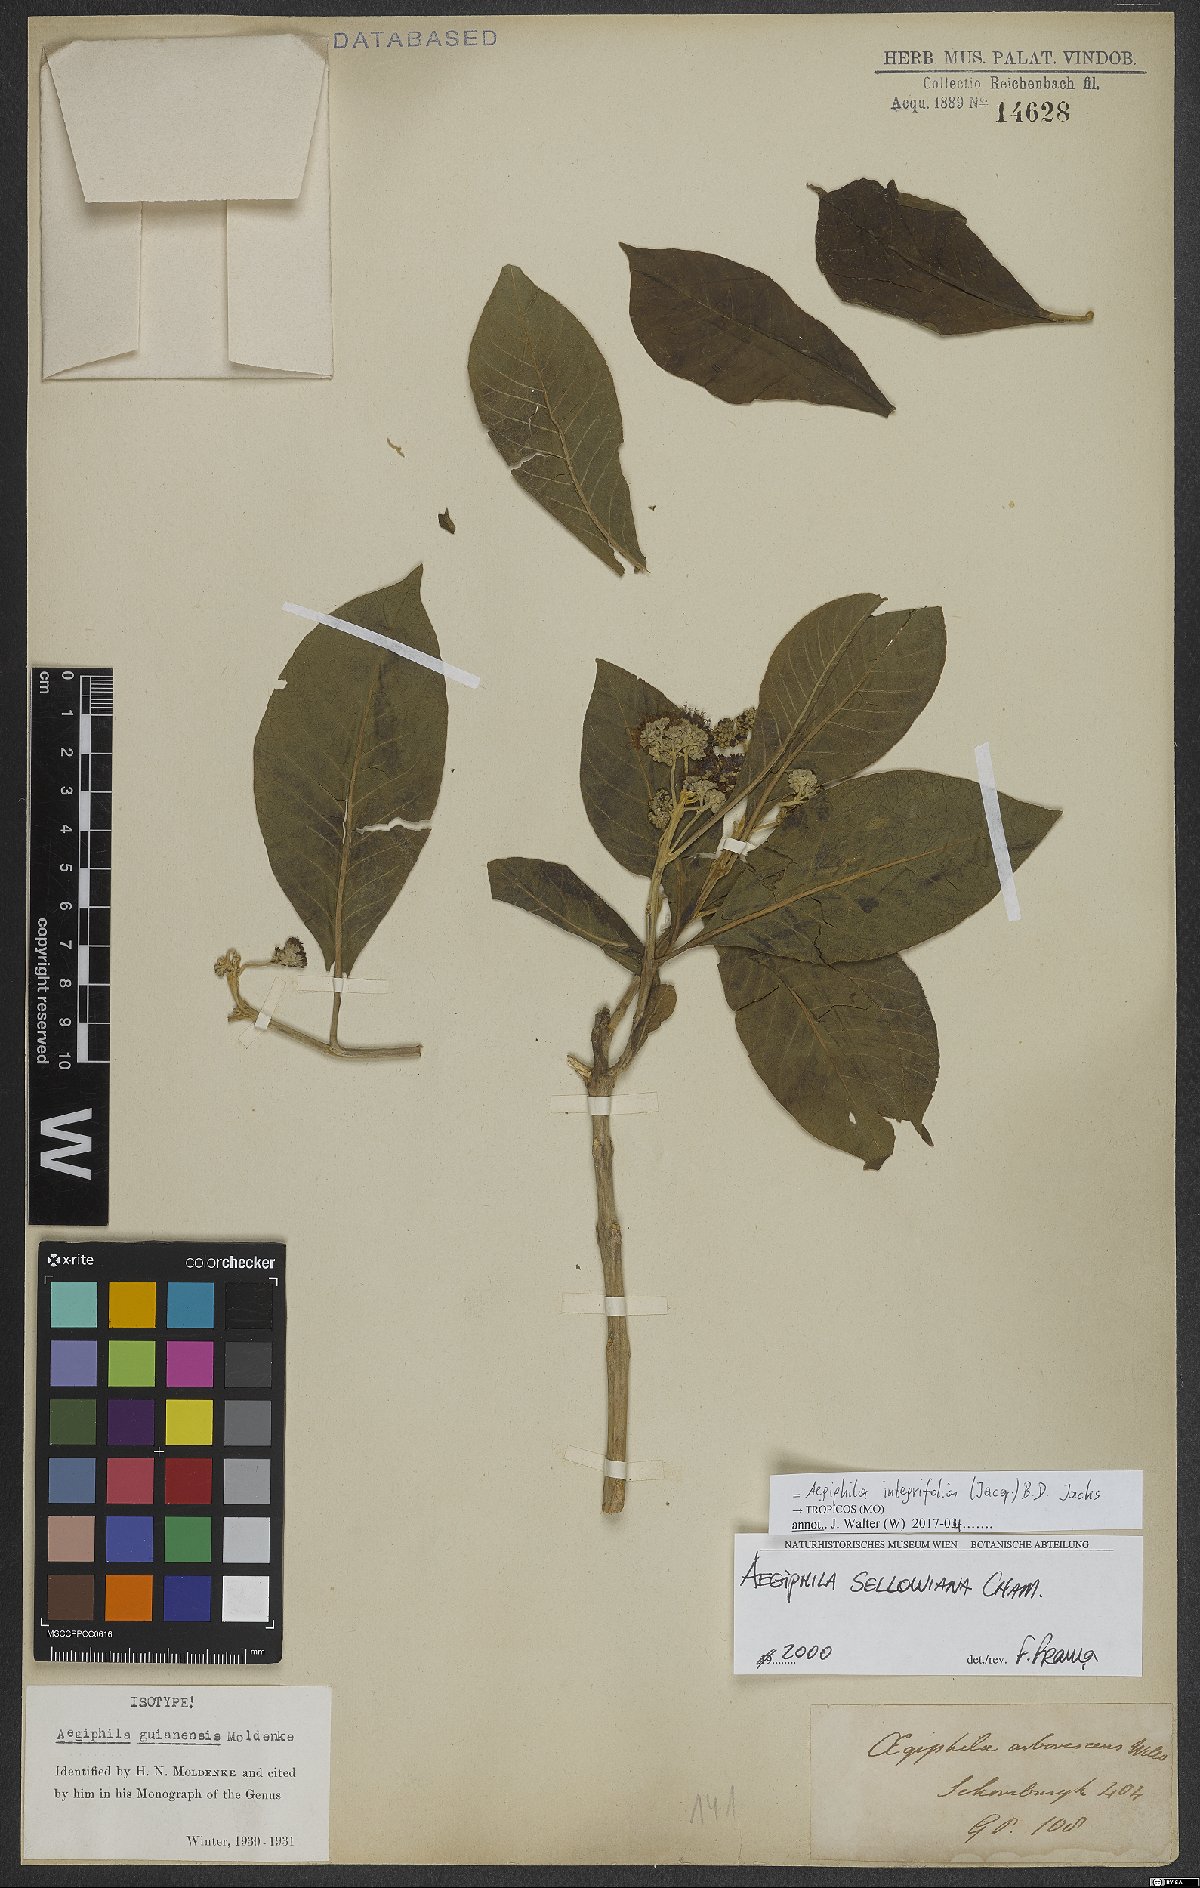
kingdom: Plantae
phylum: Tracheophyta
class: Magnoliopsida
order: Lamiales
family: Lamiaceae
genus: Aegiphila
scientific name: Aegiphila integrifolia
